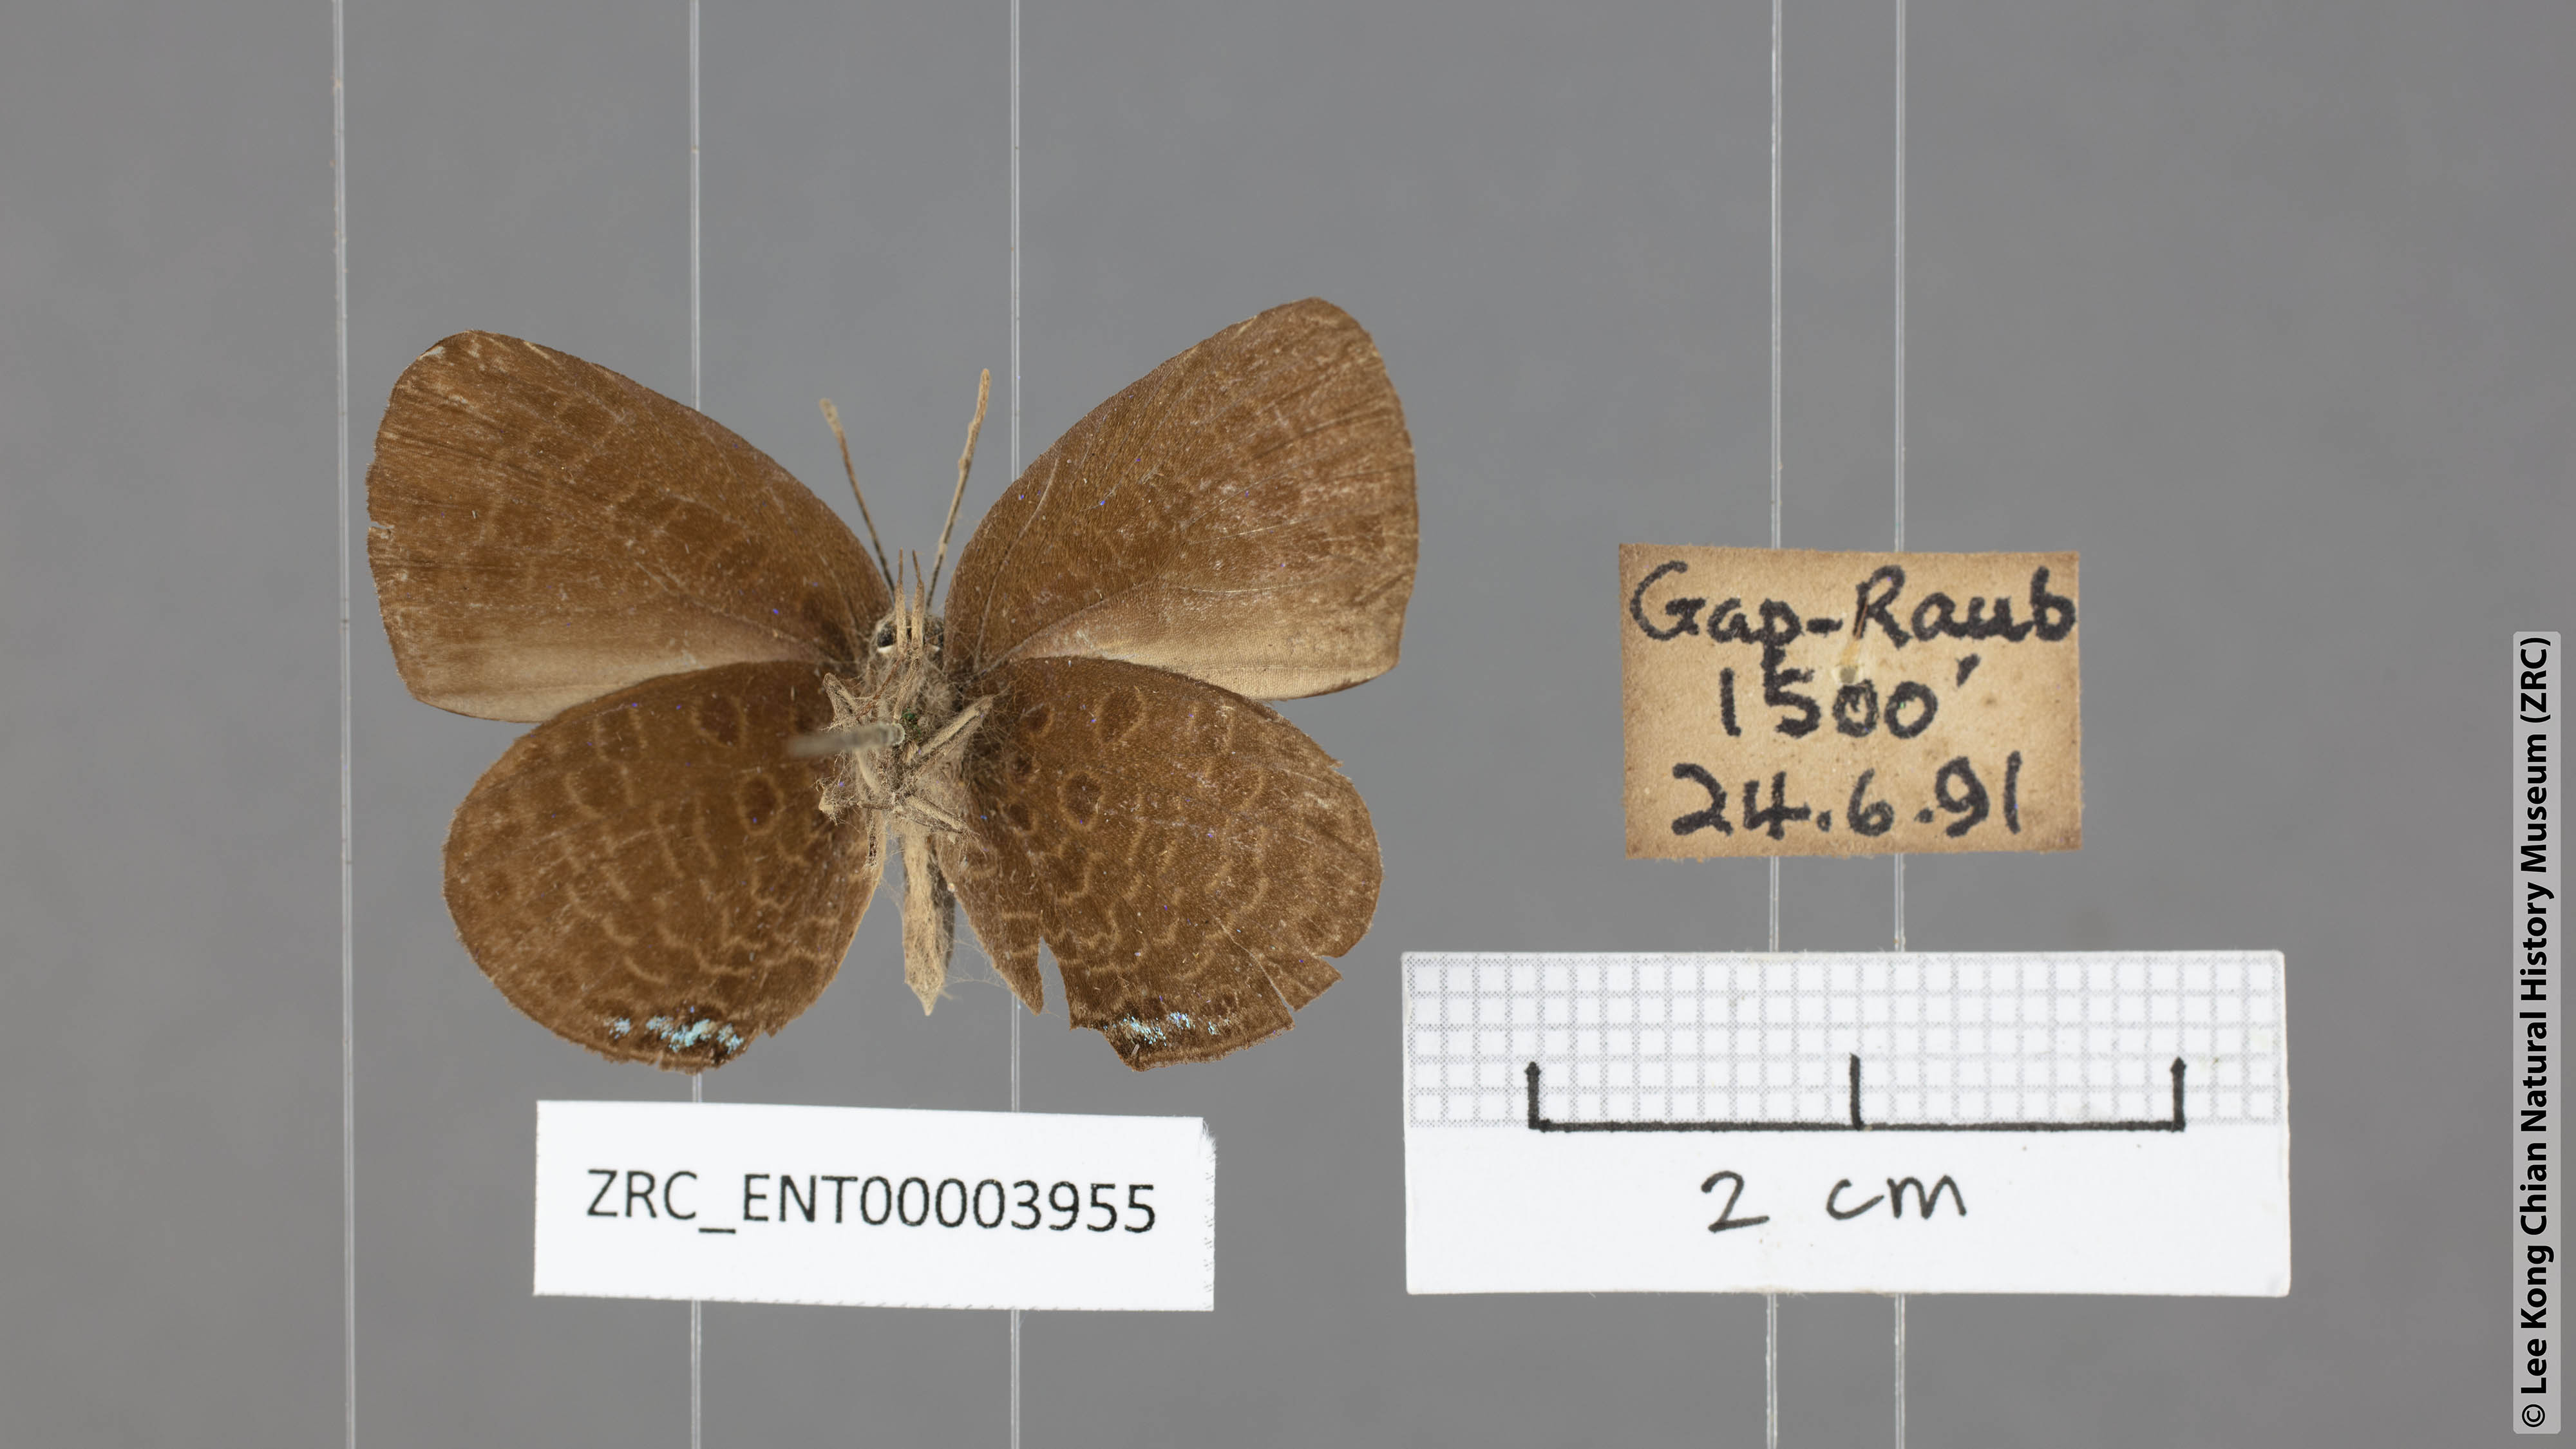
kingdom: Animalia
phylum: Arthropoda
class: Insecta
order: Lepidoptera
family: Lycaenidae
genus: Arhopala
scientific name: Arhopala hypomuta
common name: Violet oakblue
